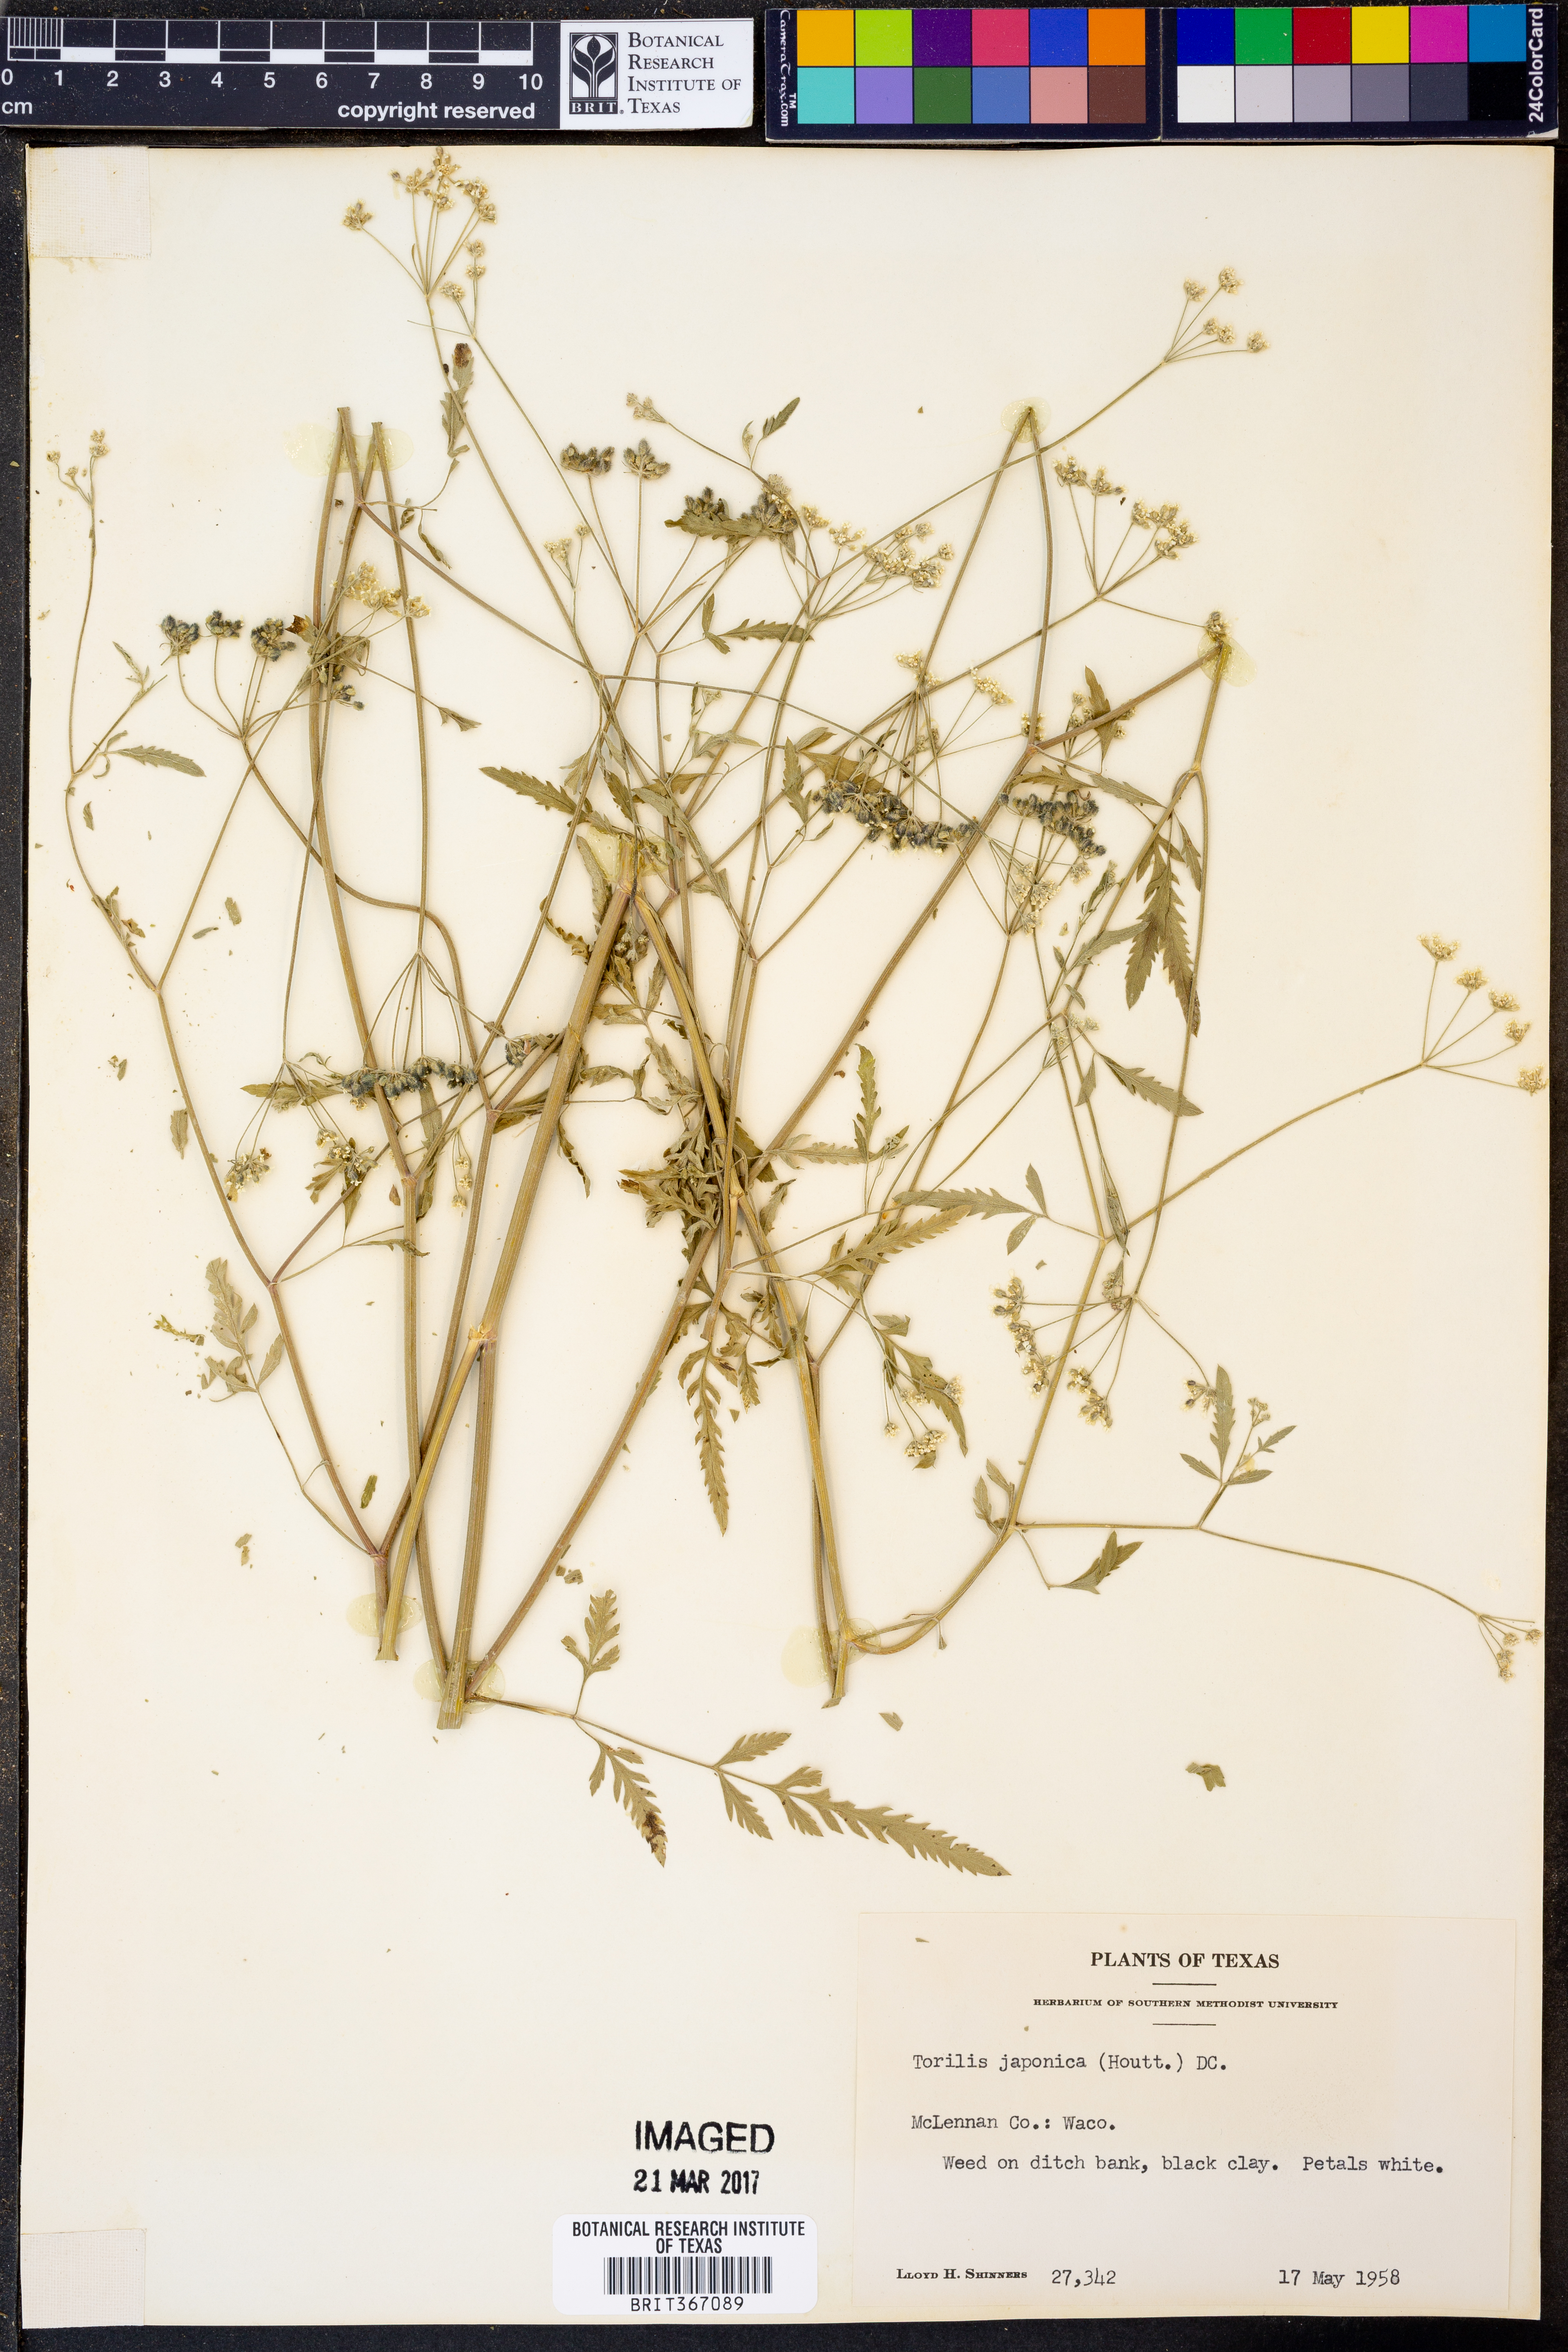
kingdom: Plantae
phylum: Tracheophyta
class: Magnoliopsida
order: Apiales
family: Apiaceae
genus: Torilis
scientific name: Torilis japonica
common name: Upright hedge-parsley
